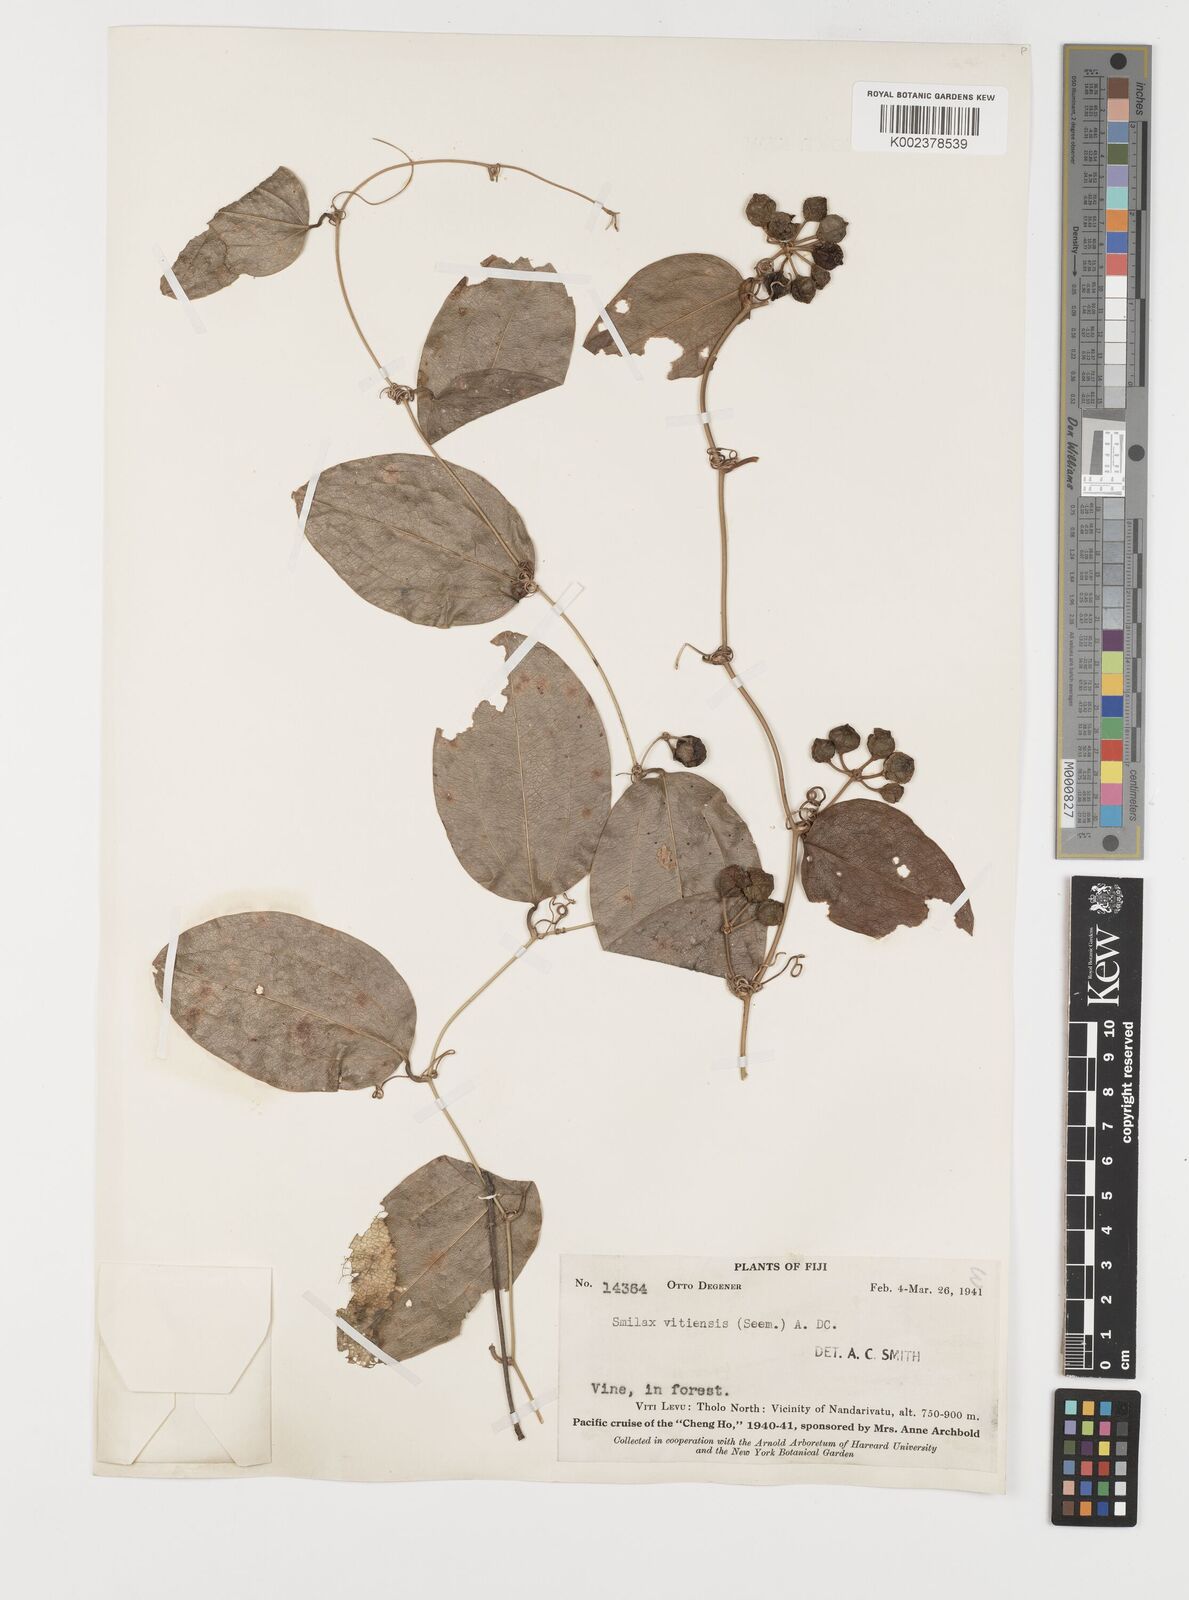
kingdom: Plantae
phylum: Tracheophyta
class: Liliopsida
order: Liliales
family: Smilacaceae
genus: Smilax
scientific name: Smilax vitiensis
